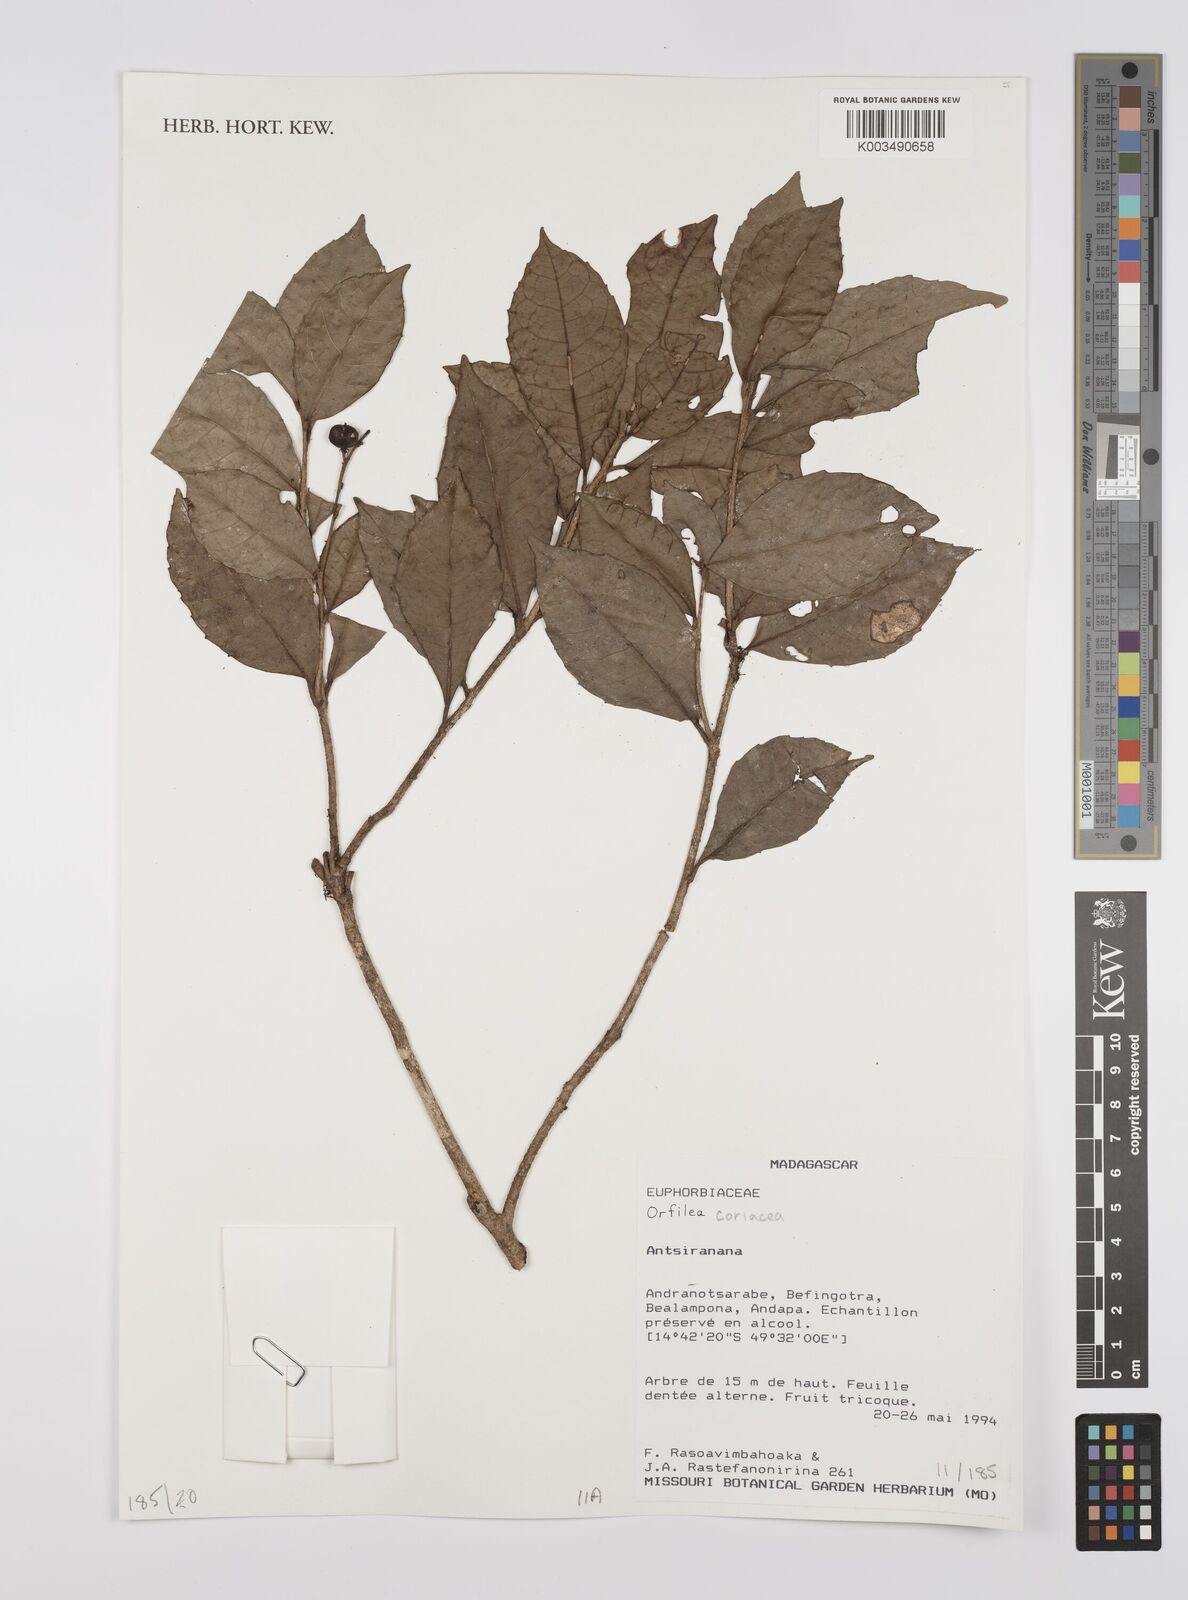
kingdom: Plantae
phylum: Tracheophyta
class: Magnoliopsida
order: Malpighiales
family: Euphorbiaceae
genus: Orfilea
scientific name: Orfilea coriacea
